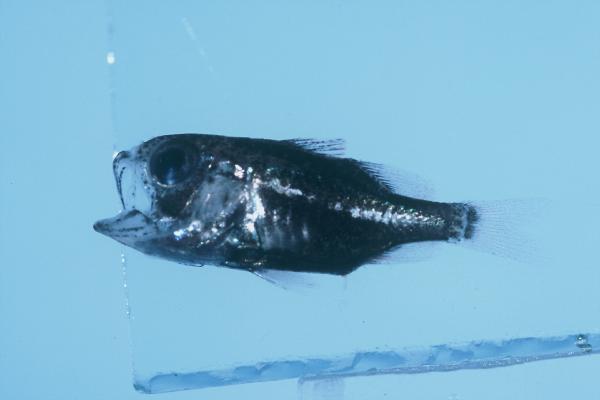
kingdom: Animalia
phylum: Chordata
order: Perciformes
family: Apogonidae
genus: Siphamia
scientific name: Siphamia mossambica
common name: Sea urchin cardinal
